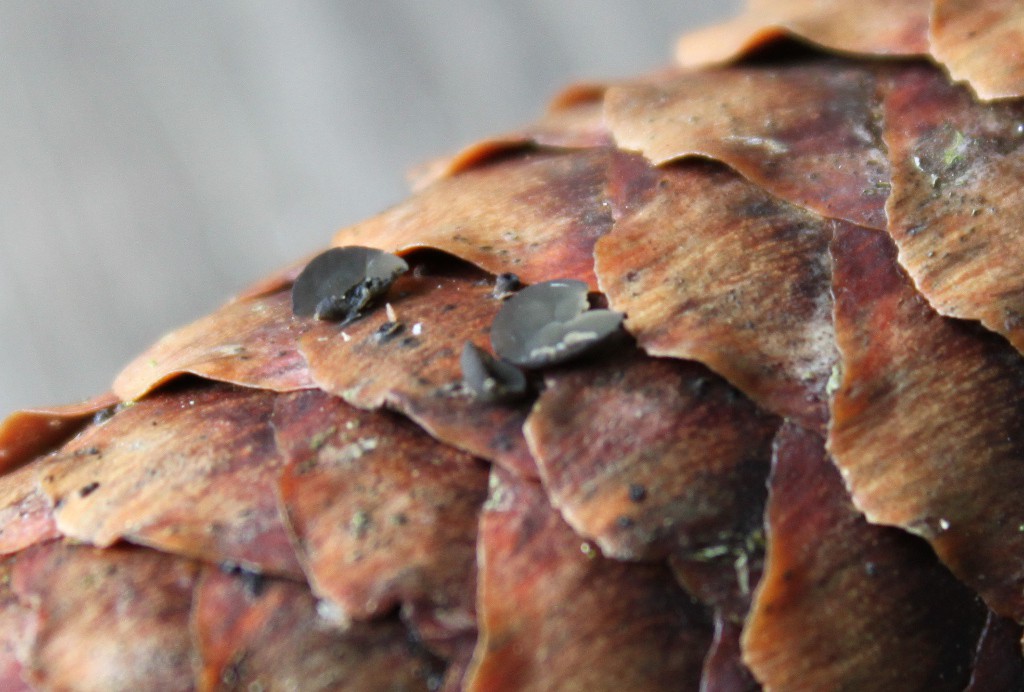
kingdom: Fungi
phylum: Ascomycota
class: Leotiomycetes
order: Helotiales
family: Rutstroemiaceae
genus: Rutstroemia
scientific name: Rutstroemia bulgarioides
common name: kogleskive
